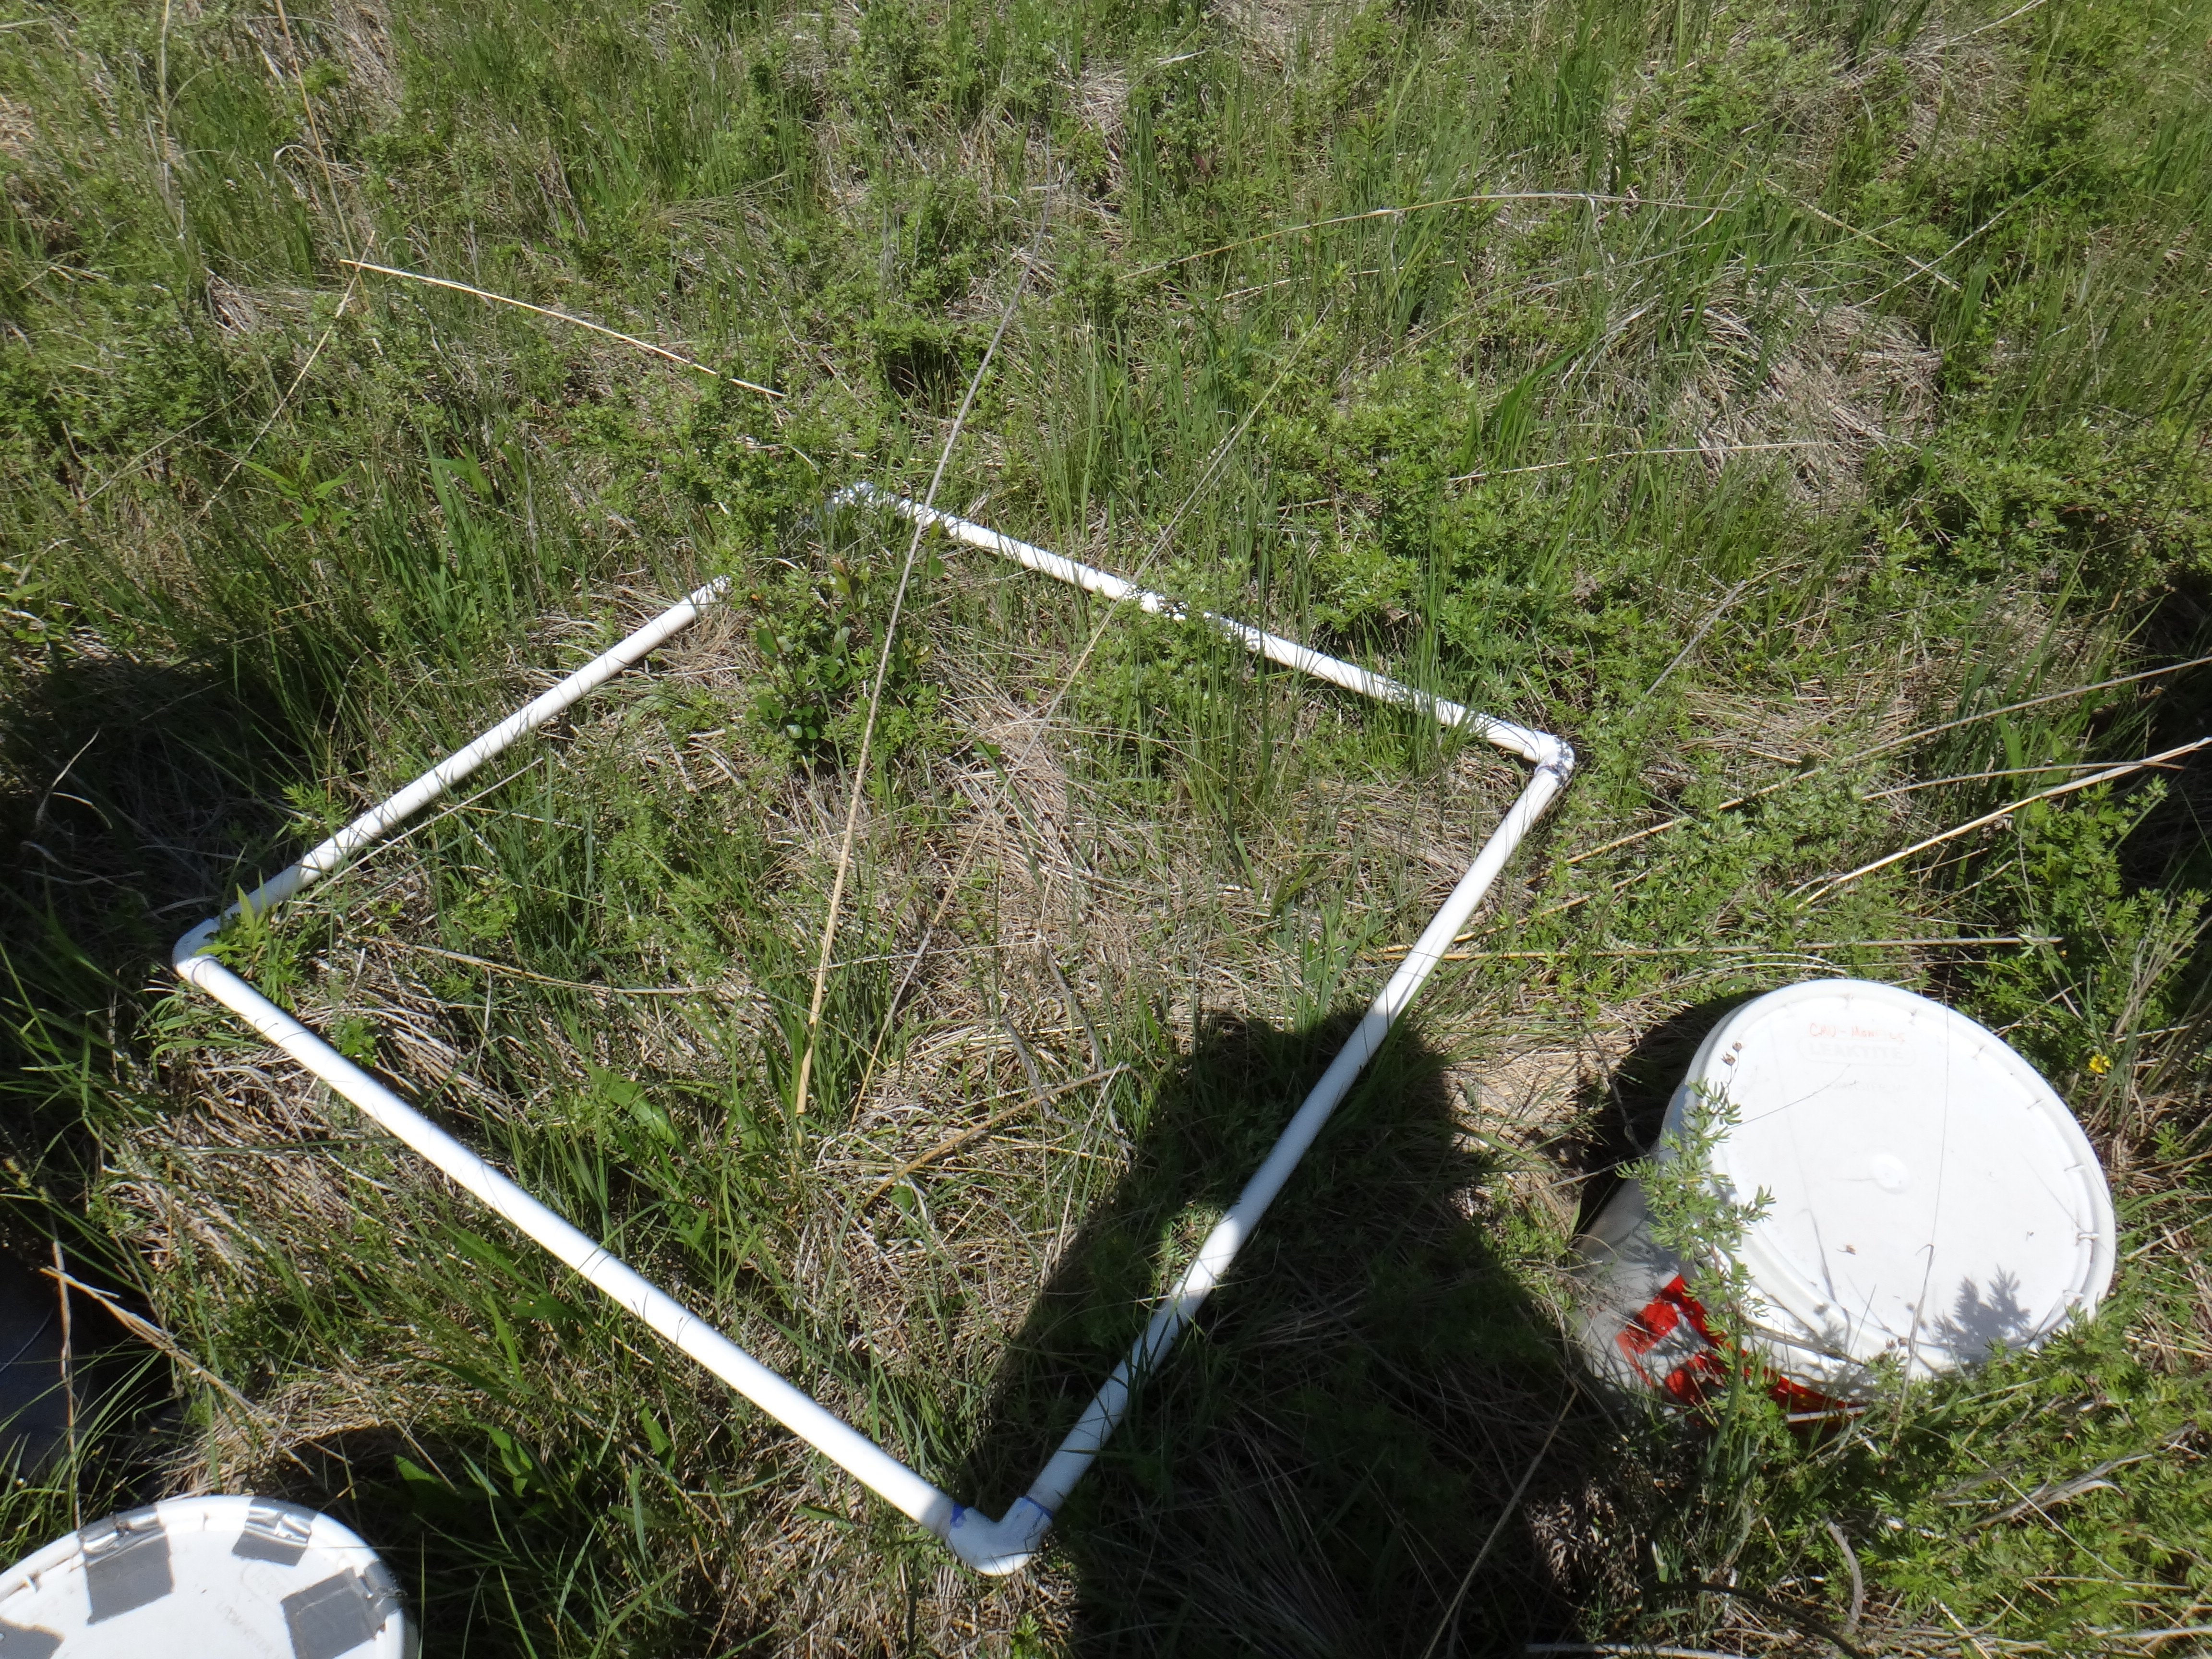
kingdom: Plantae
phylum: Tracheophyta
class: Liliopsida
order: Poales
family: Cyperaceae
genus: Eleocharis
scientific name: Eleocharis elliptica
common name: Capitate spikerush
